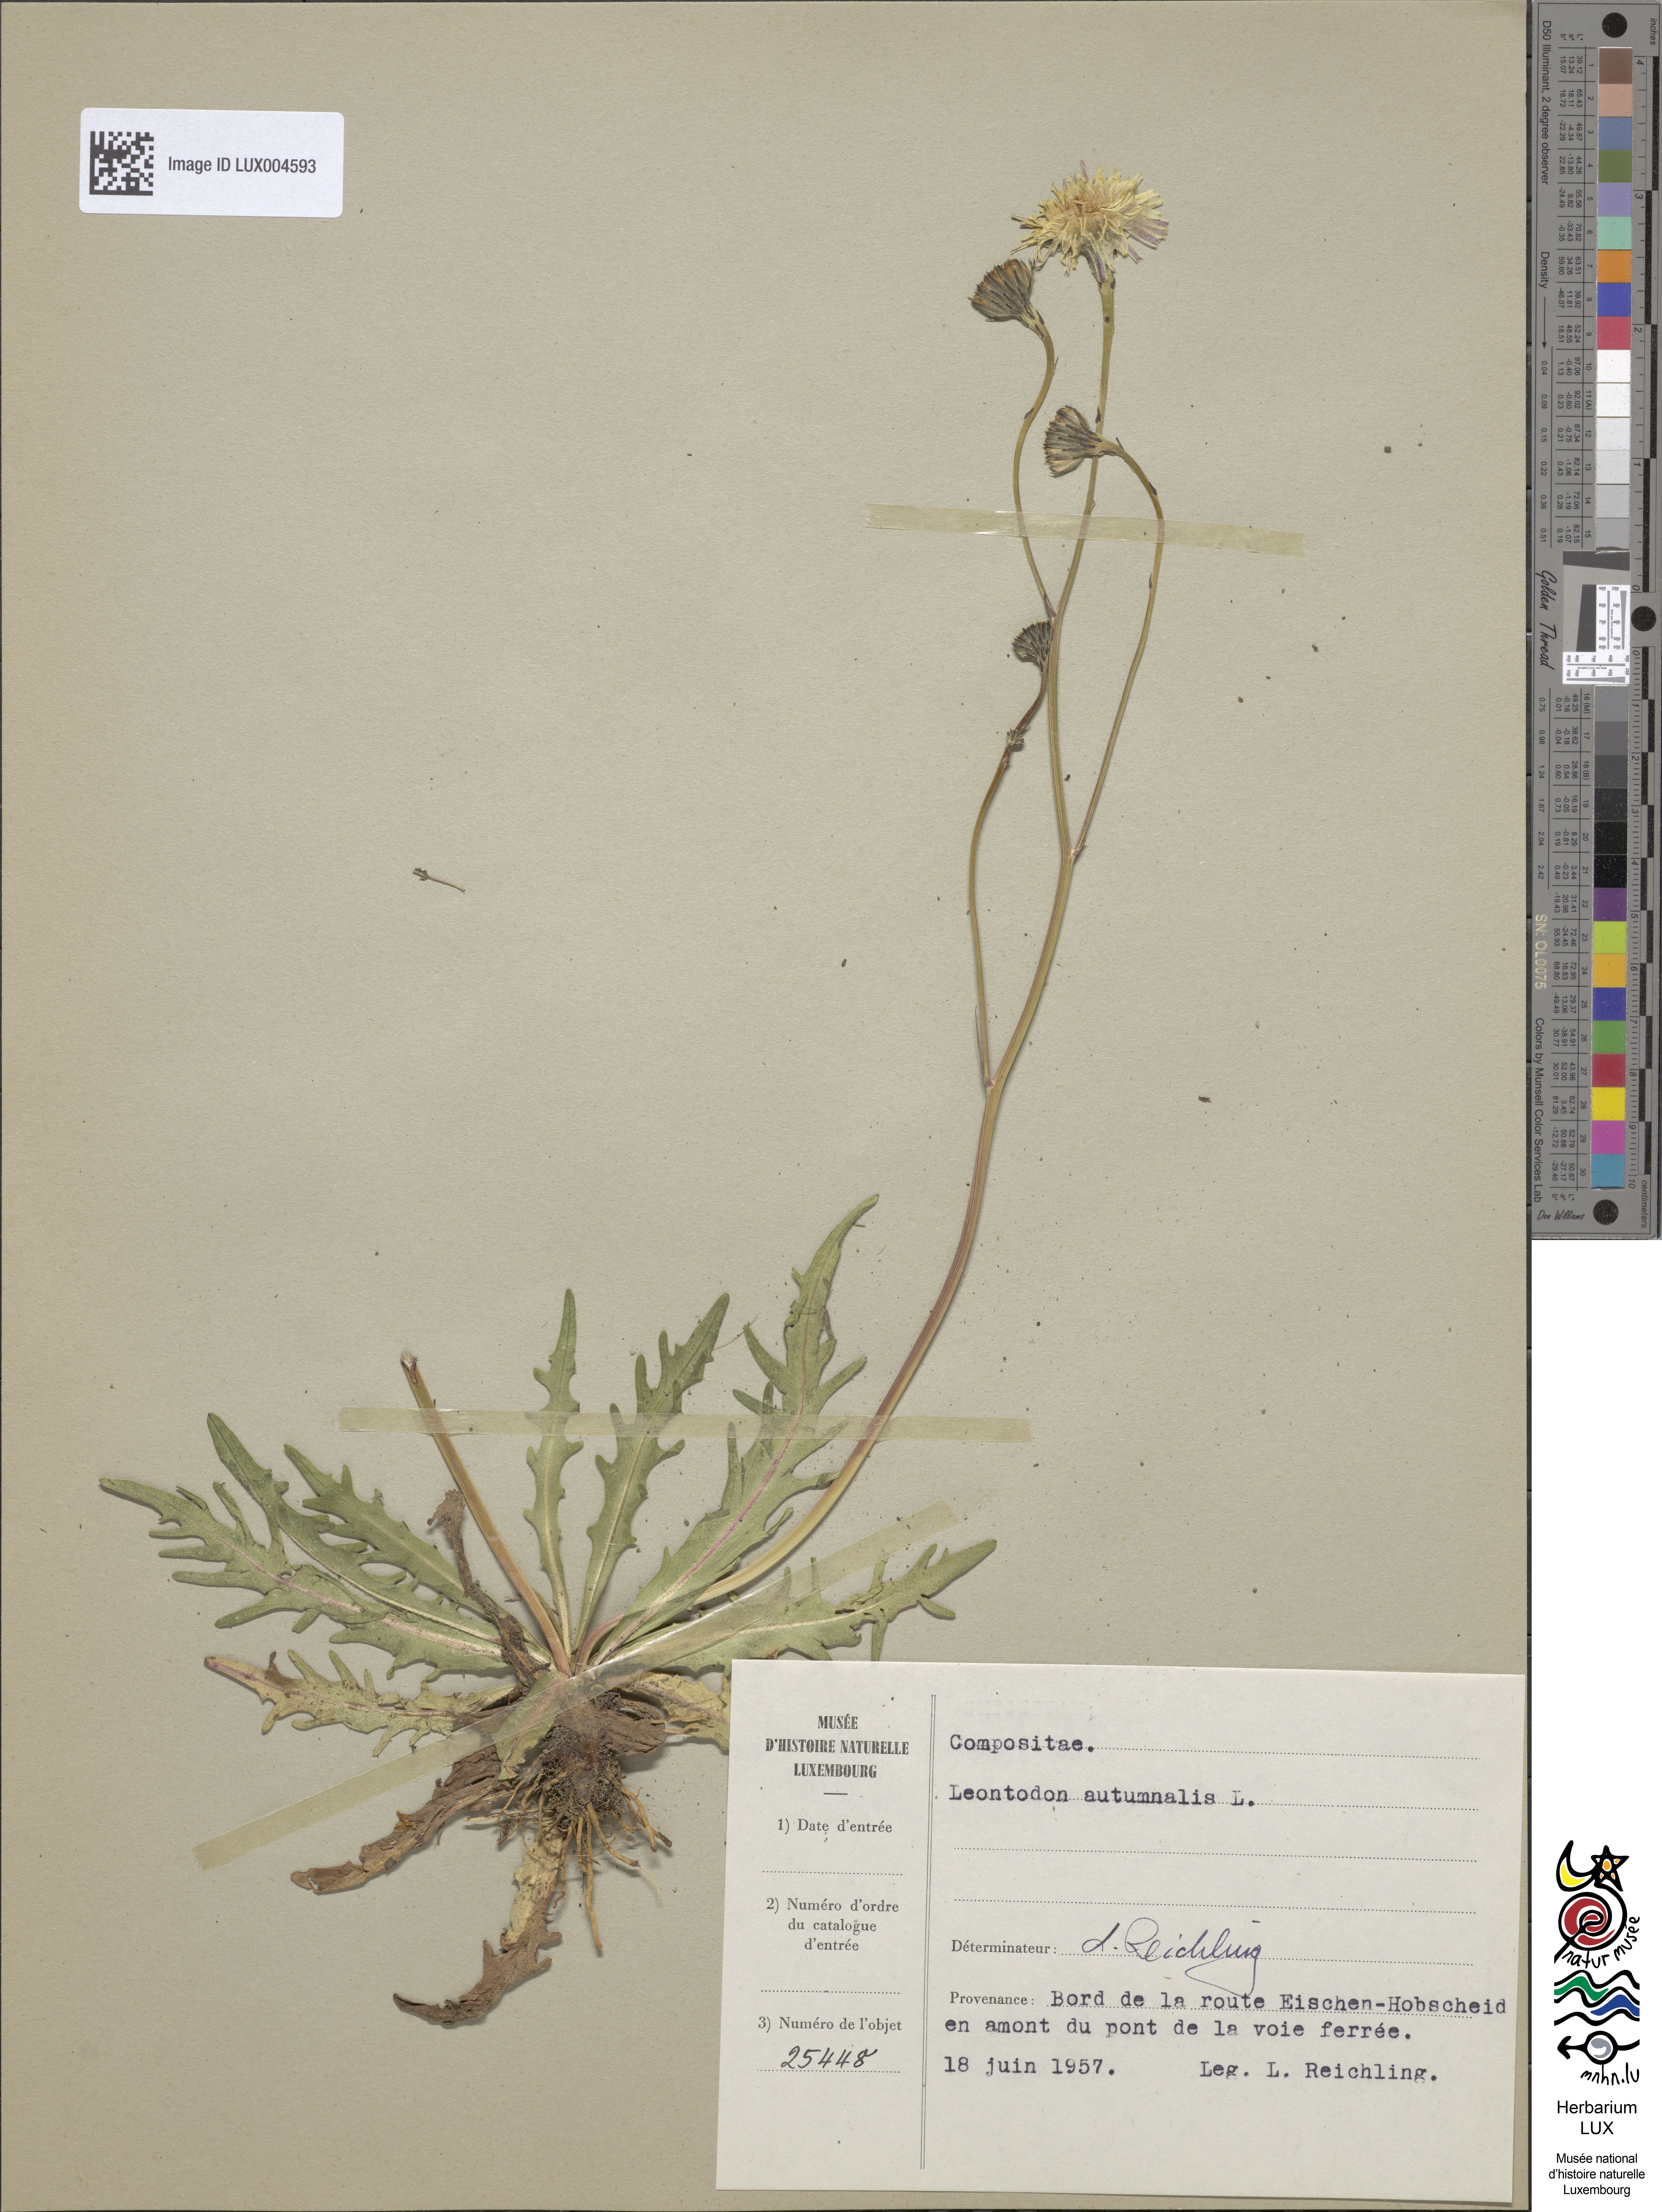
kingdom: Plantae
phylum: Tracheophyta
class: Magnoliopsida
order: Asterales
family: Asteraceae
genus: Scorzoneroides
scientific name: Scorzoneroides autumnalis
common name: Autumn hawkbit
